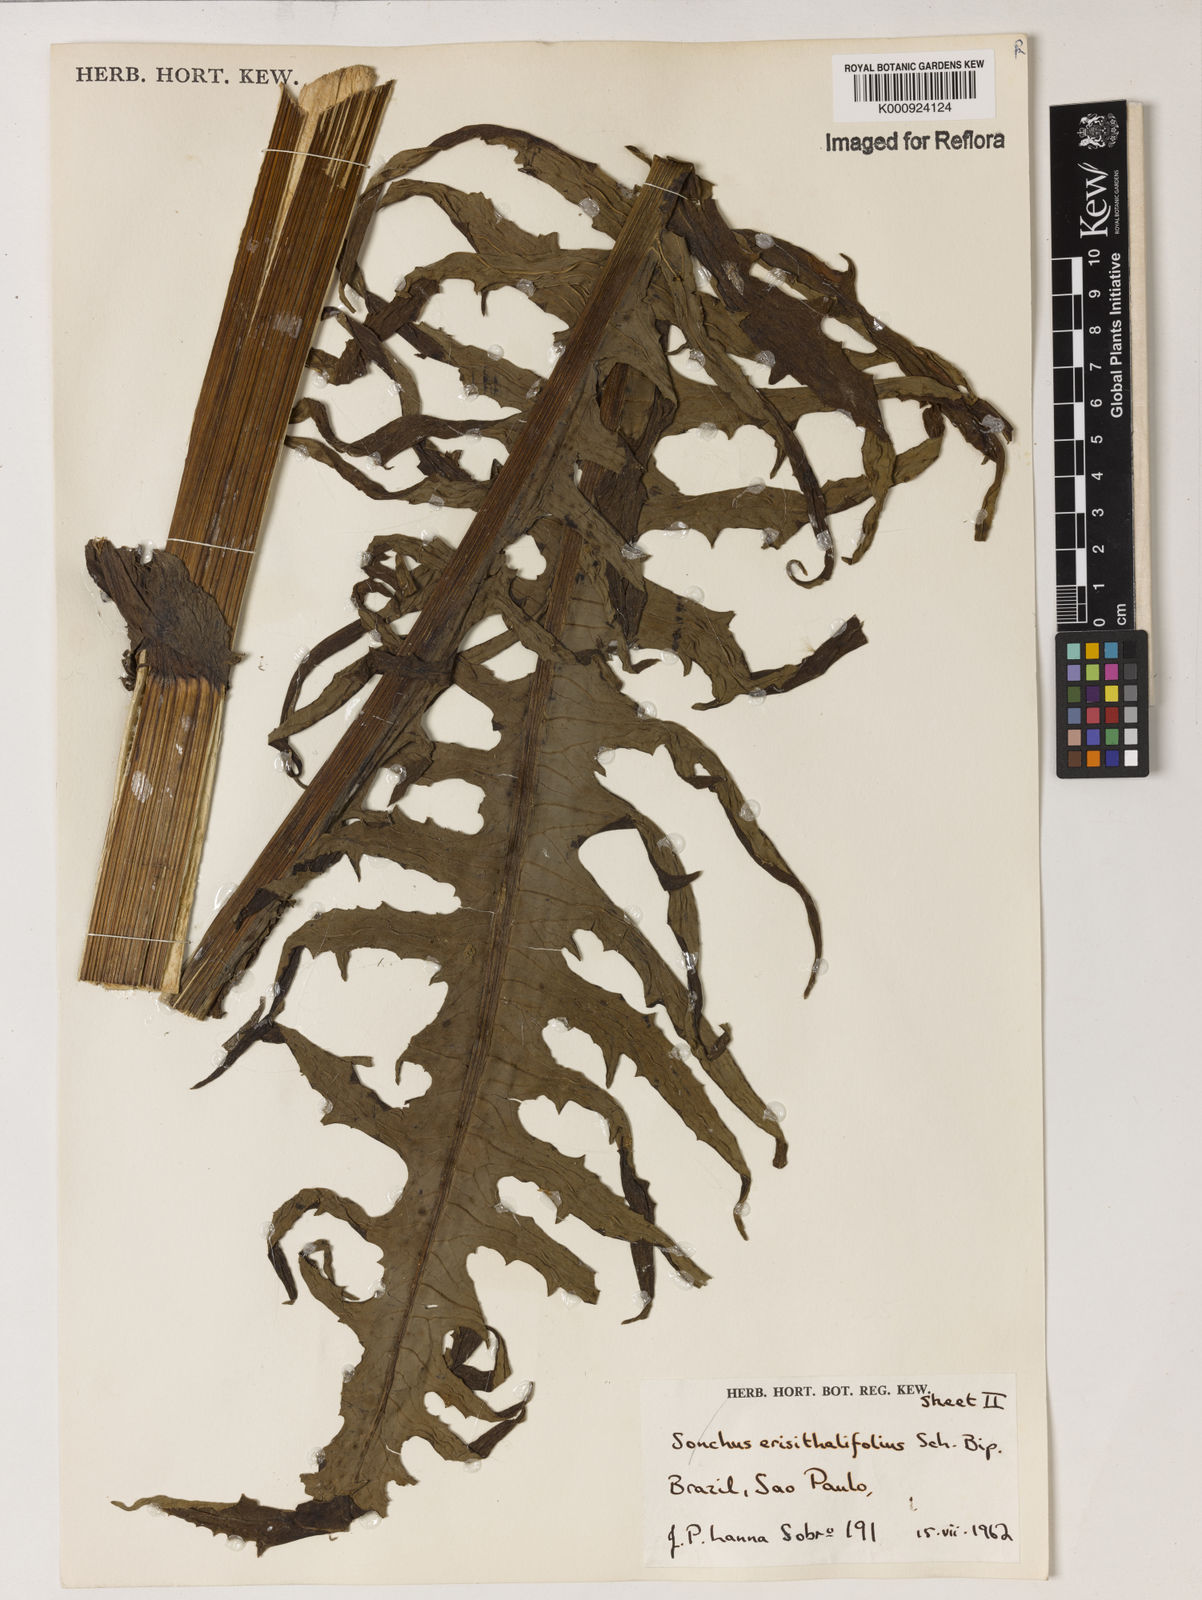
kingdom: Plantae
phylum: Tracheophyta
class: Magnoliopsida
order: Asterales
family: Asteraceae
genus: Senecio
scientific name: Senecio erisithalifolius
